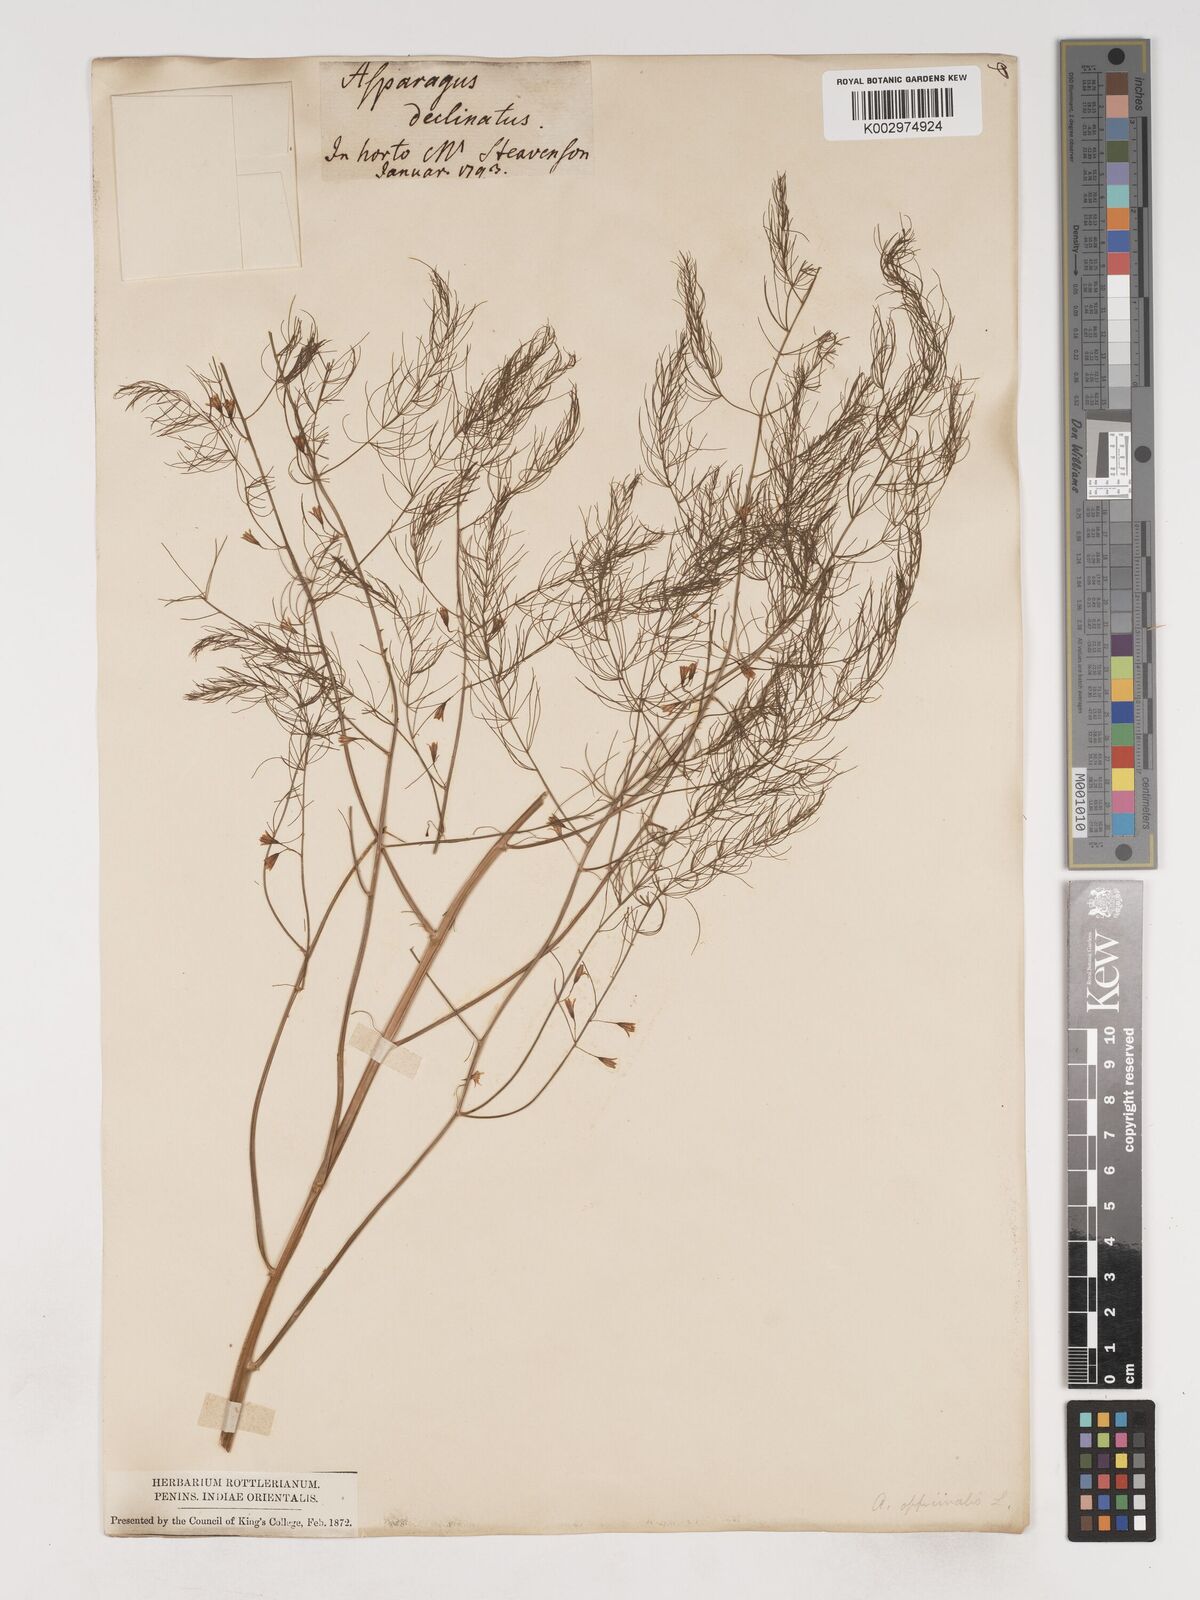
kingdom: Plantae
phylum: Tracheophyta
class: Liliopsida
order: Asparagales
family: Asparagaceae
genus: Asparagus
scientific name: Asparagus officinalis
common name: Garden asparagus
